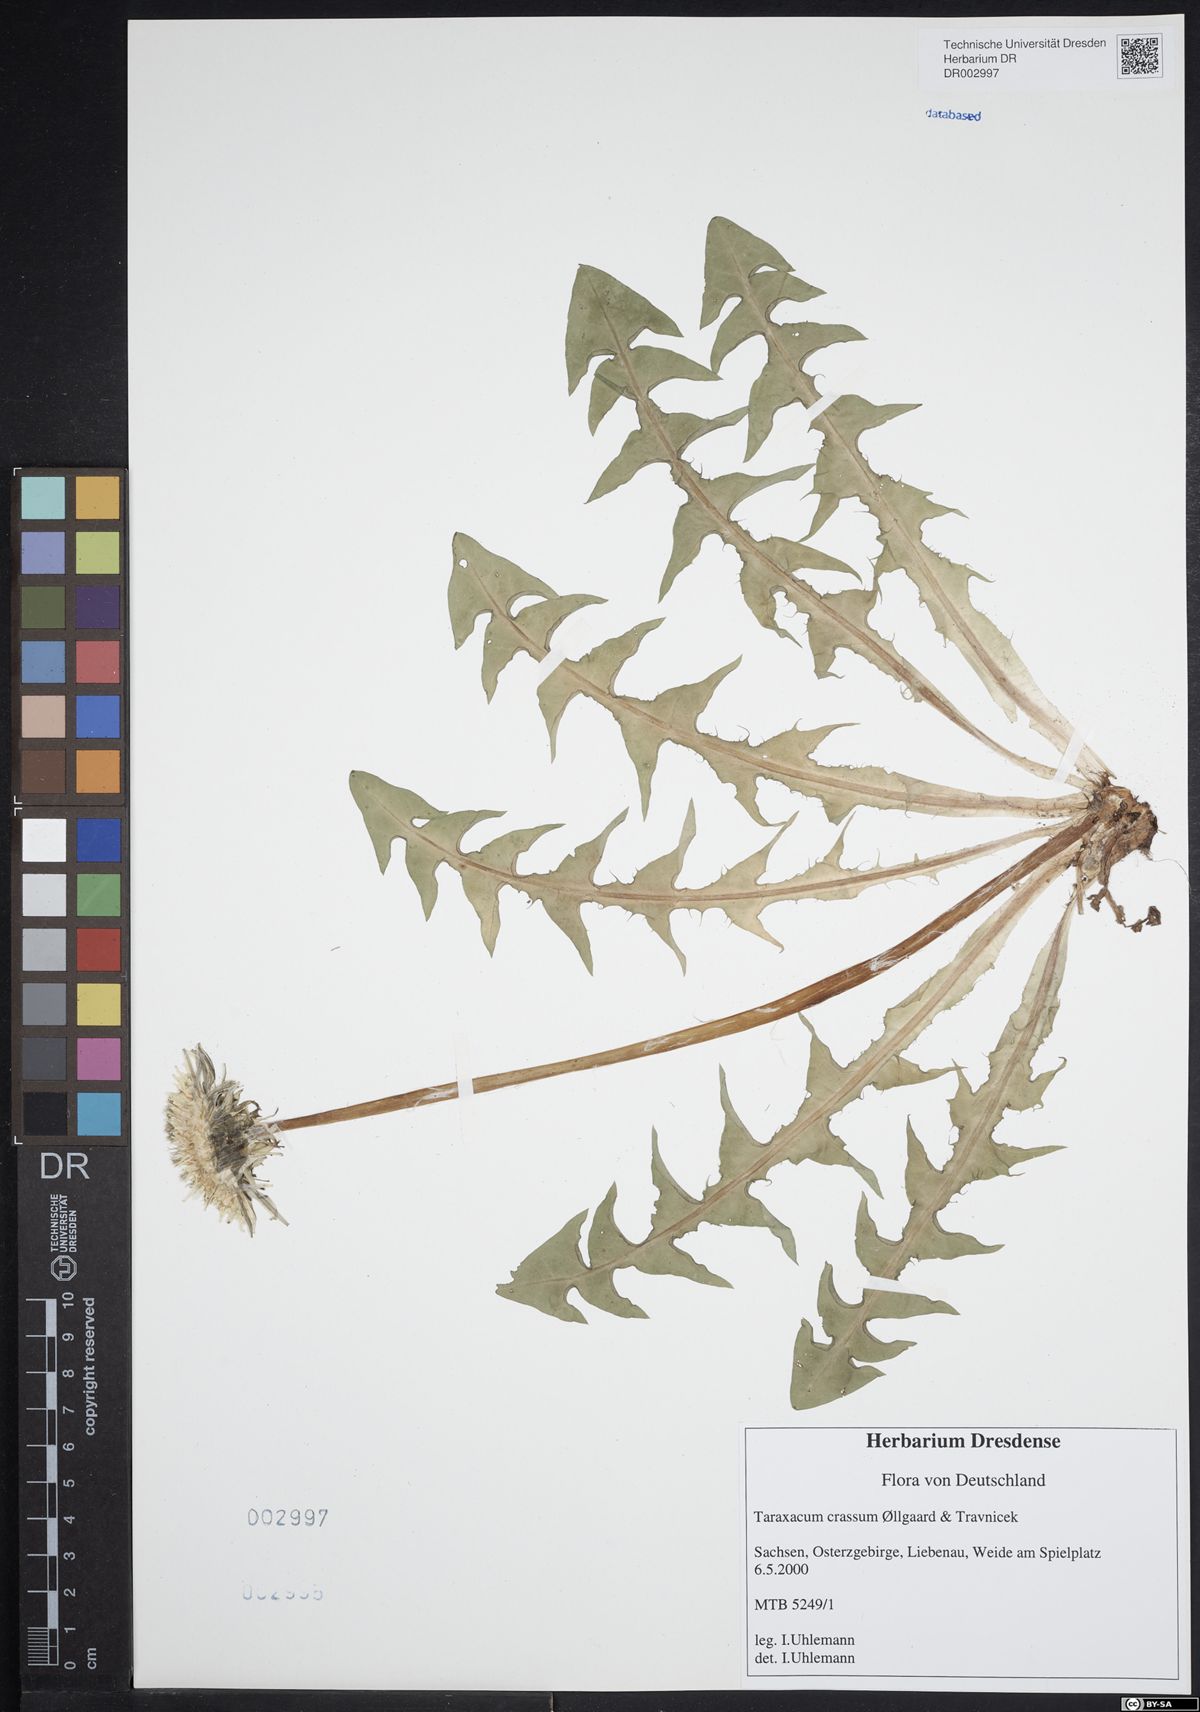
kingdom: Plantae
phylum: Tracheophyta
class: Magnoliopsida
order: Asterales
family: Asteraceae
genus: Taraxacum
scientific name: Taraxacum crassum
